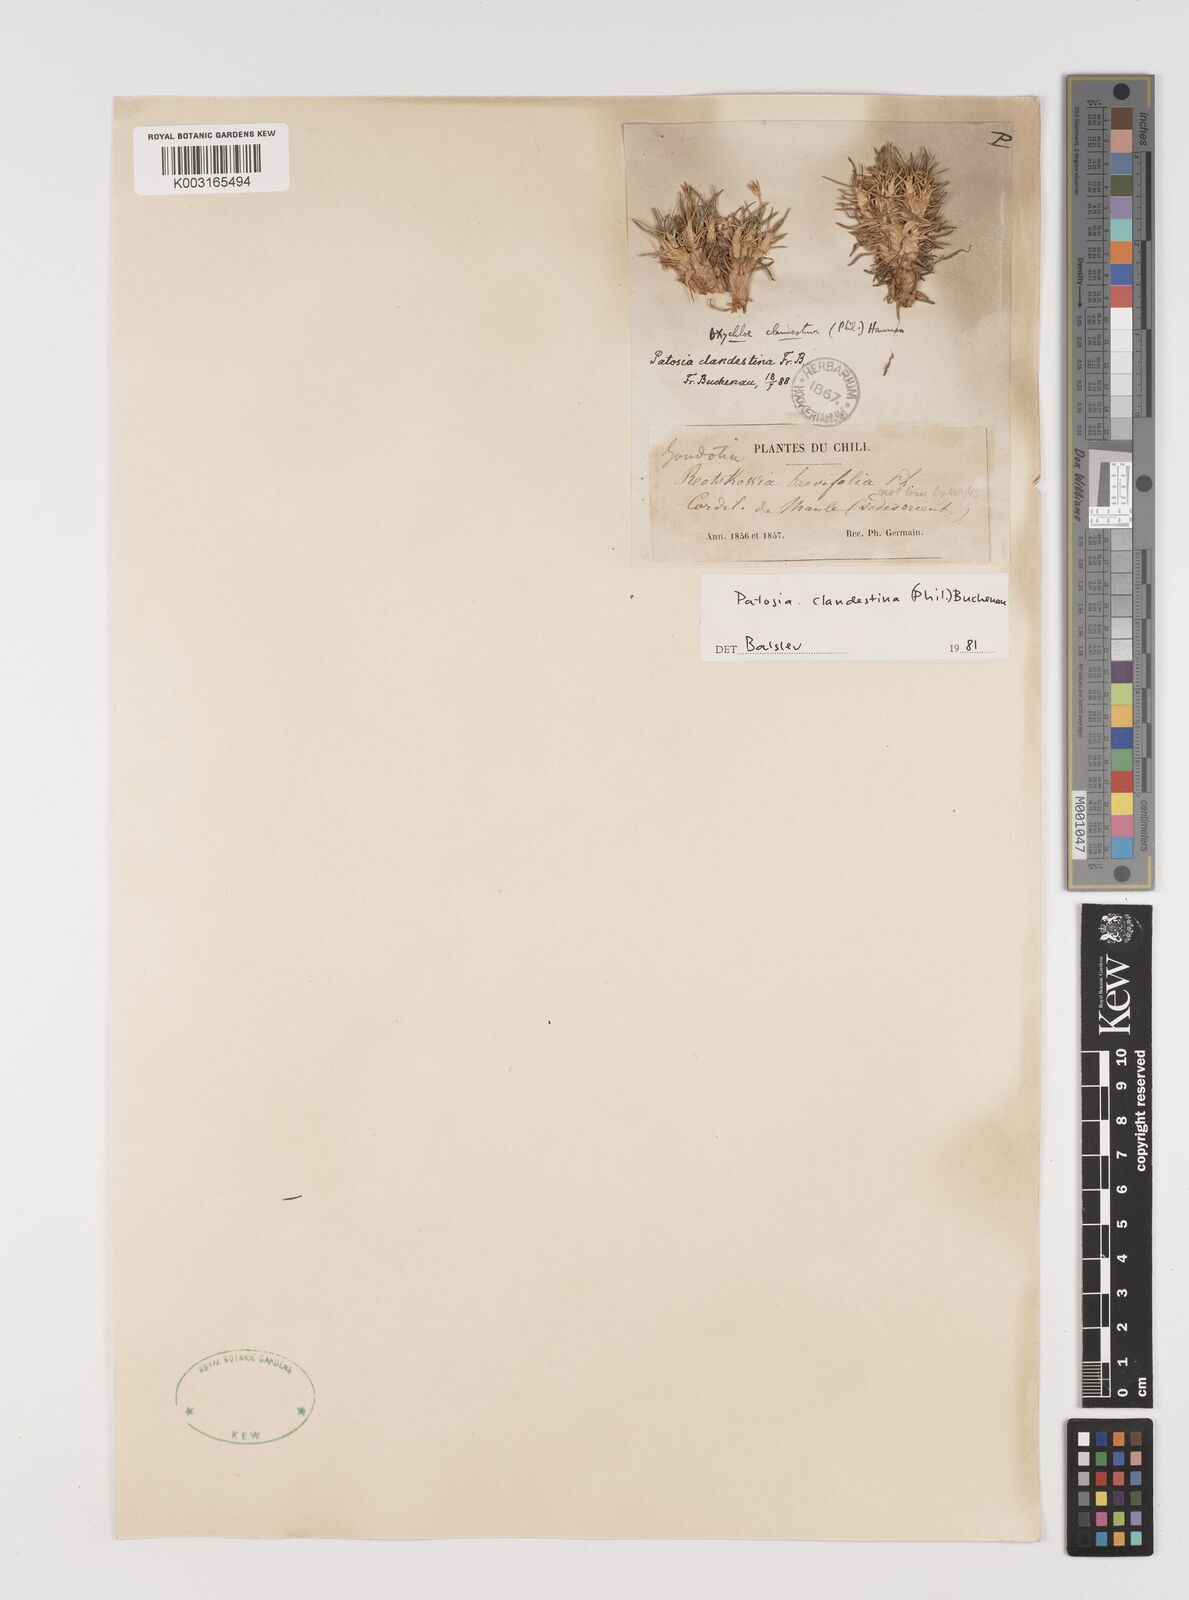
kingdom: Plantae
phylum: Tracheophyta
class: Liliopsida
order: Poales
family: Juncaceae
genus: Patosia
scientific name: Patosia clandestina
